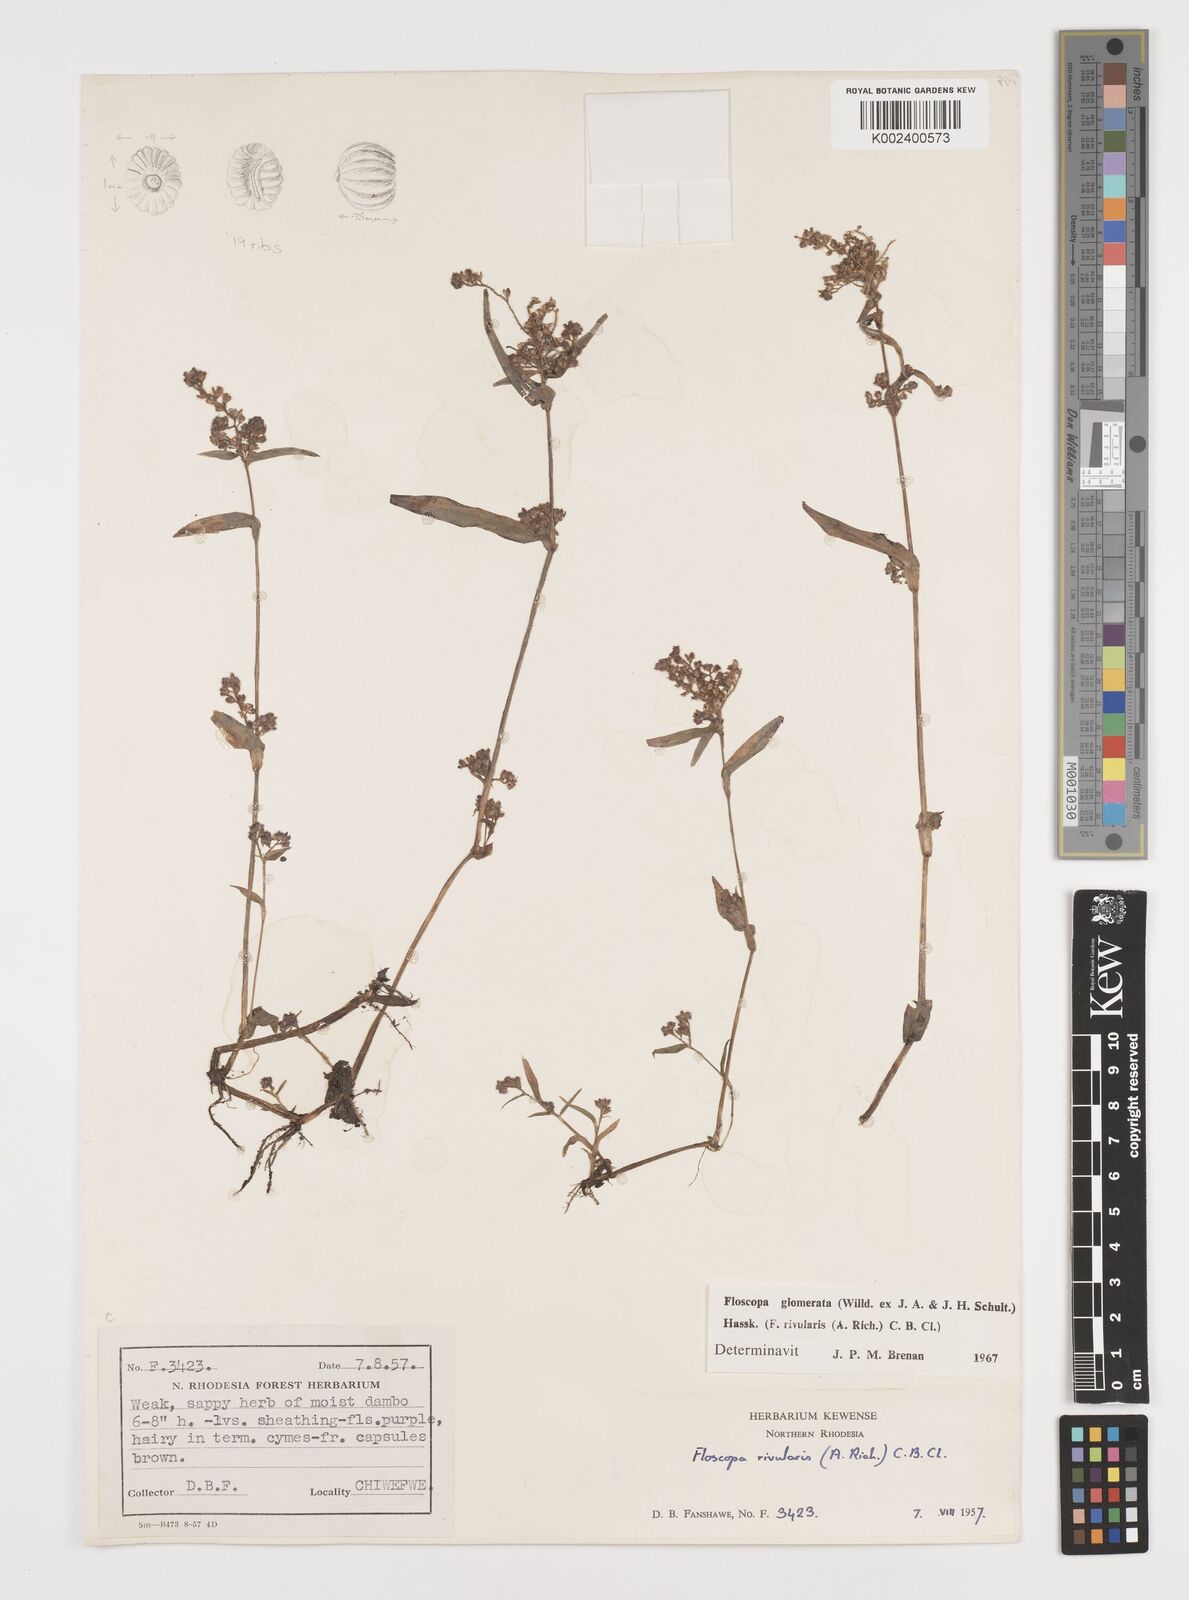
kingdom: Plantae
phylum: Tracheophyta
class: Liliopsida
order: Commelinales
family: Commelinaceae
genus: Floscopa
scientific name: Floscopa glomerata
